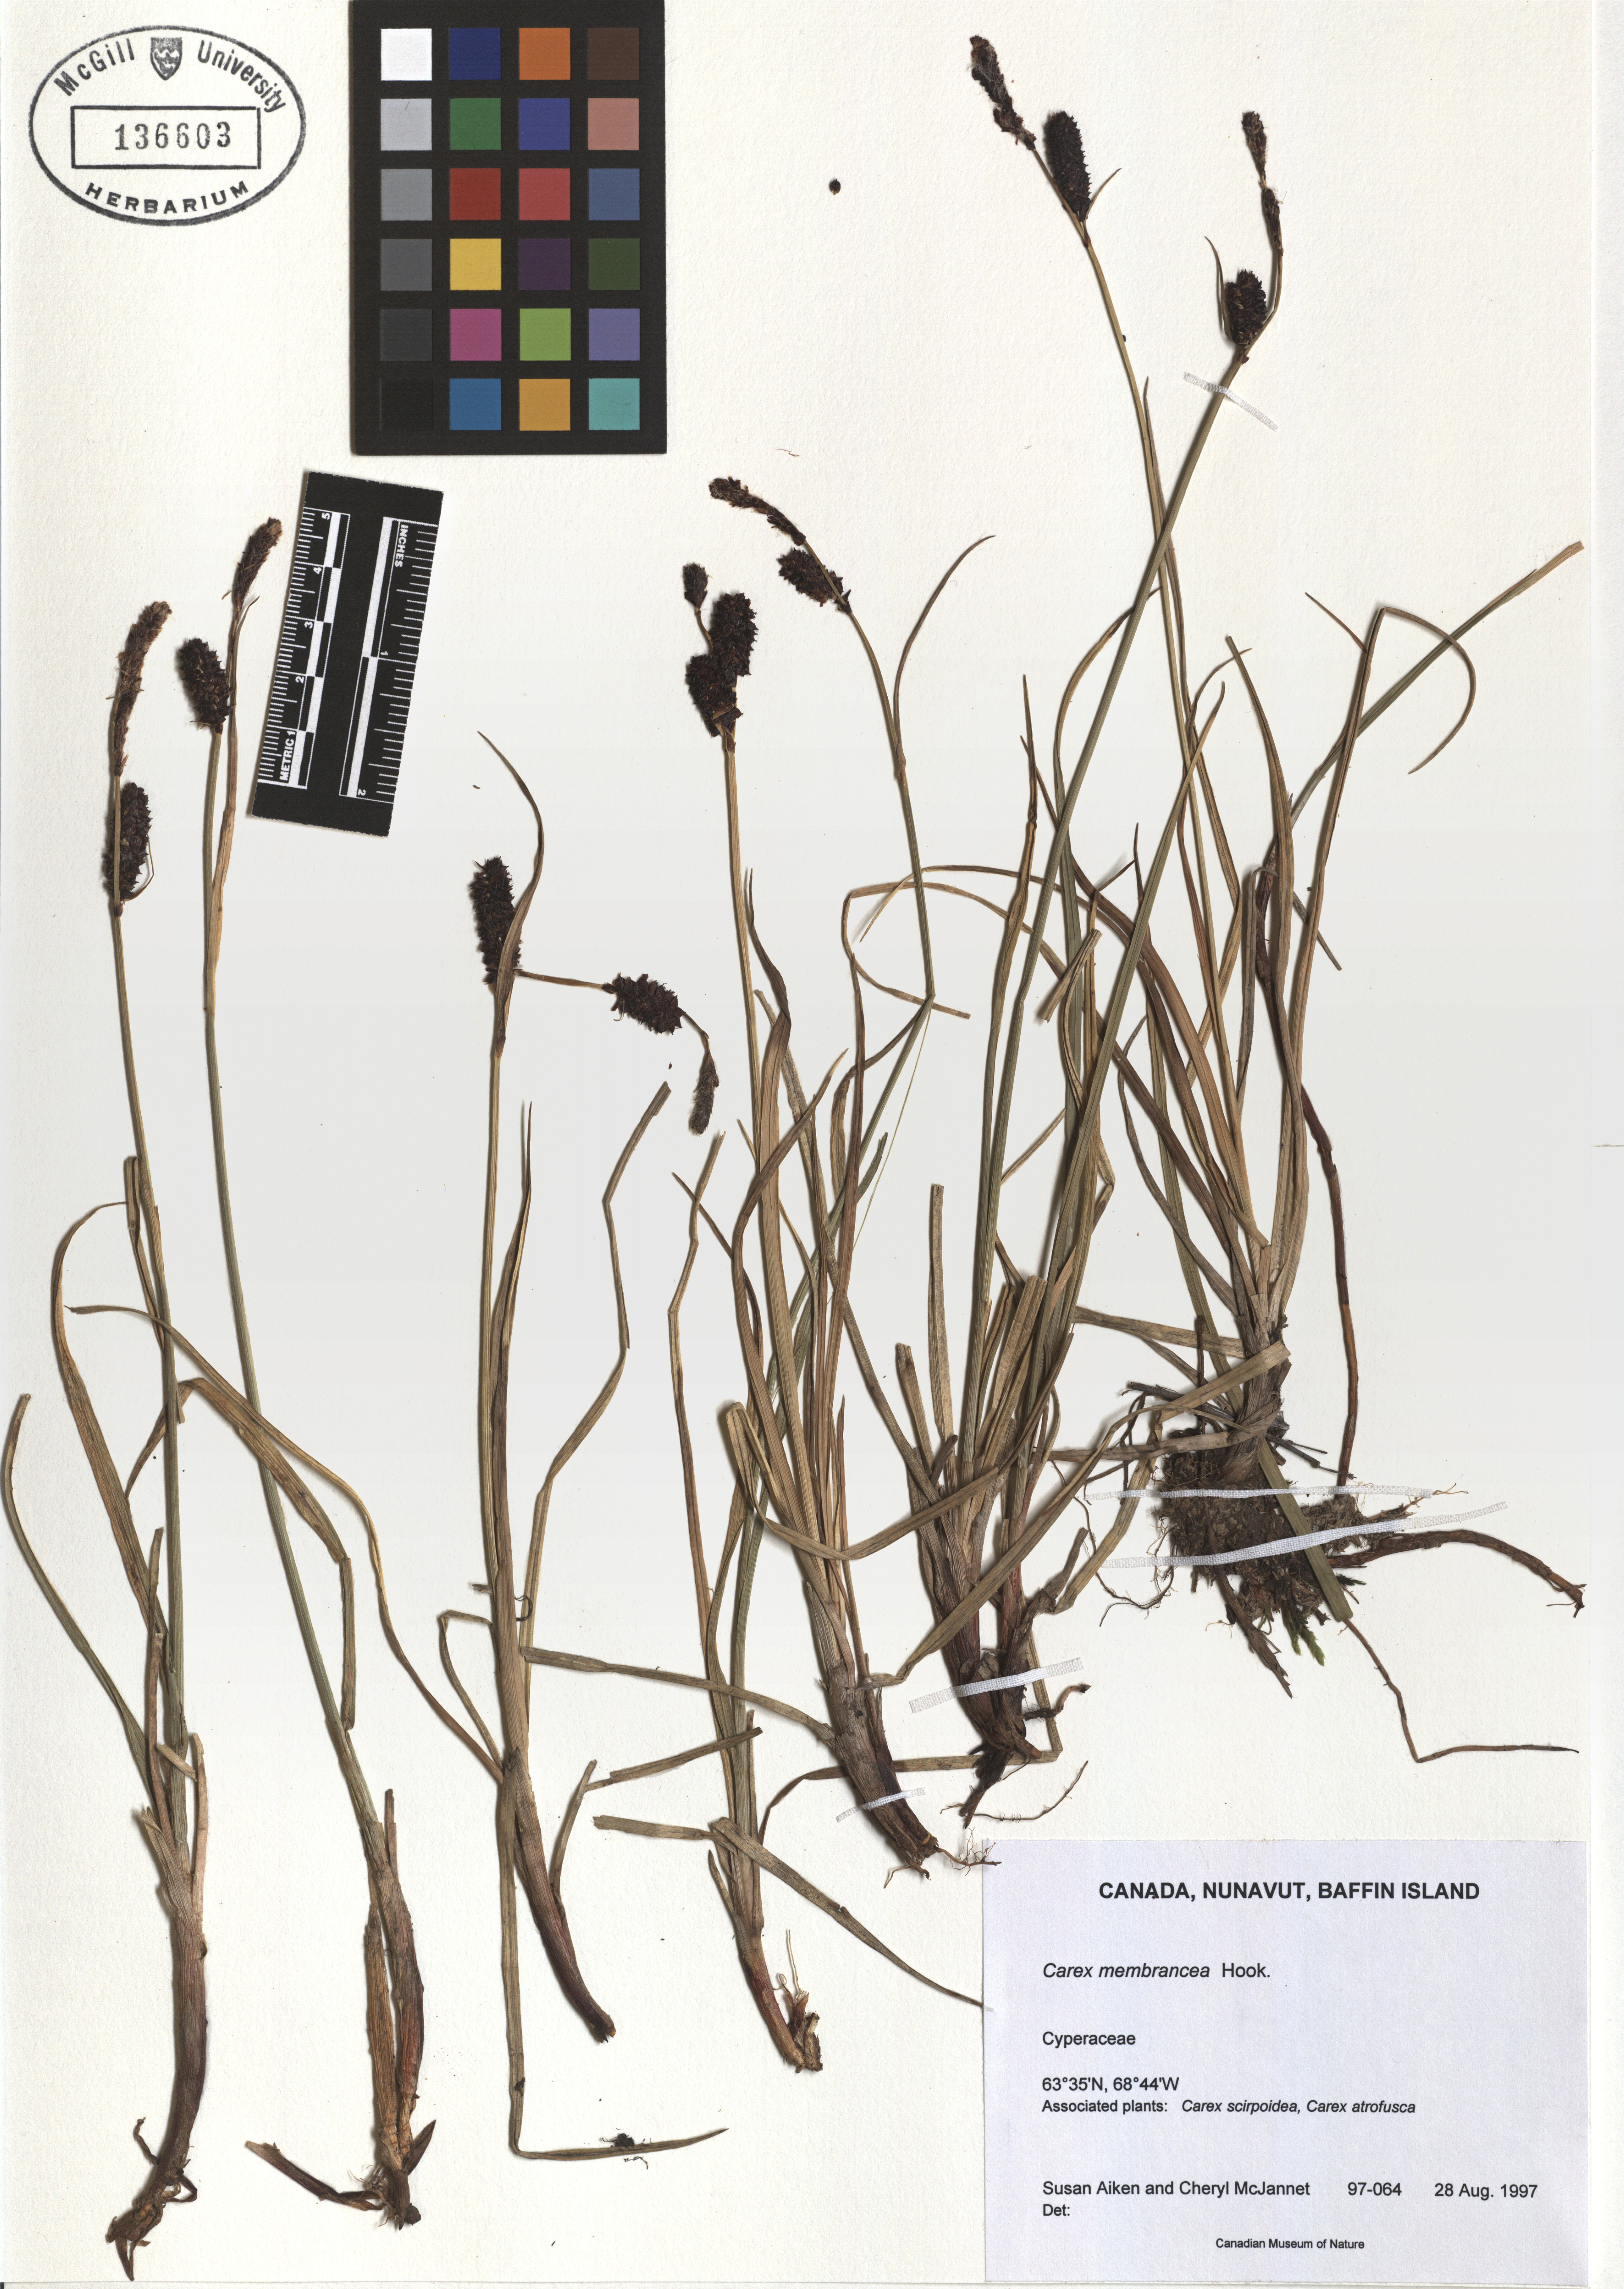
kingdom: Plantae
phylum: Tracheophyta
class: Liliopsida
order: Poales
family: Cyperaceae
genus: Carex
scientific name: Carex membranacea
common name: Fragile sedge
